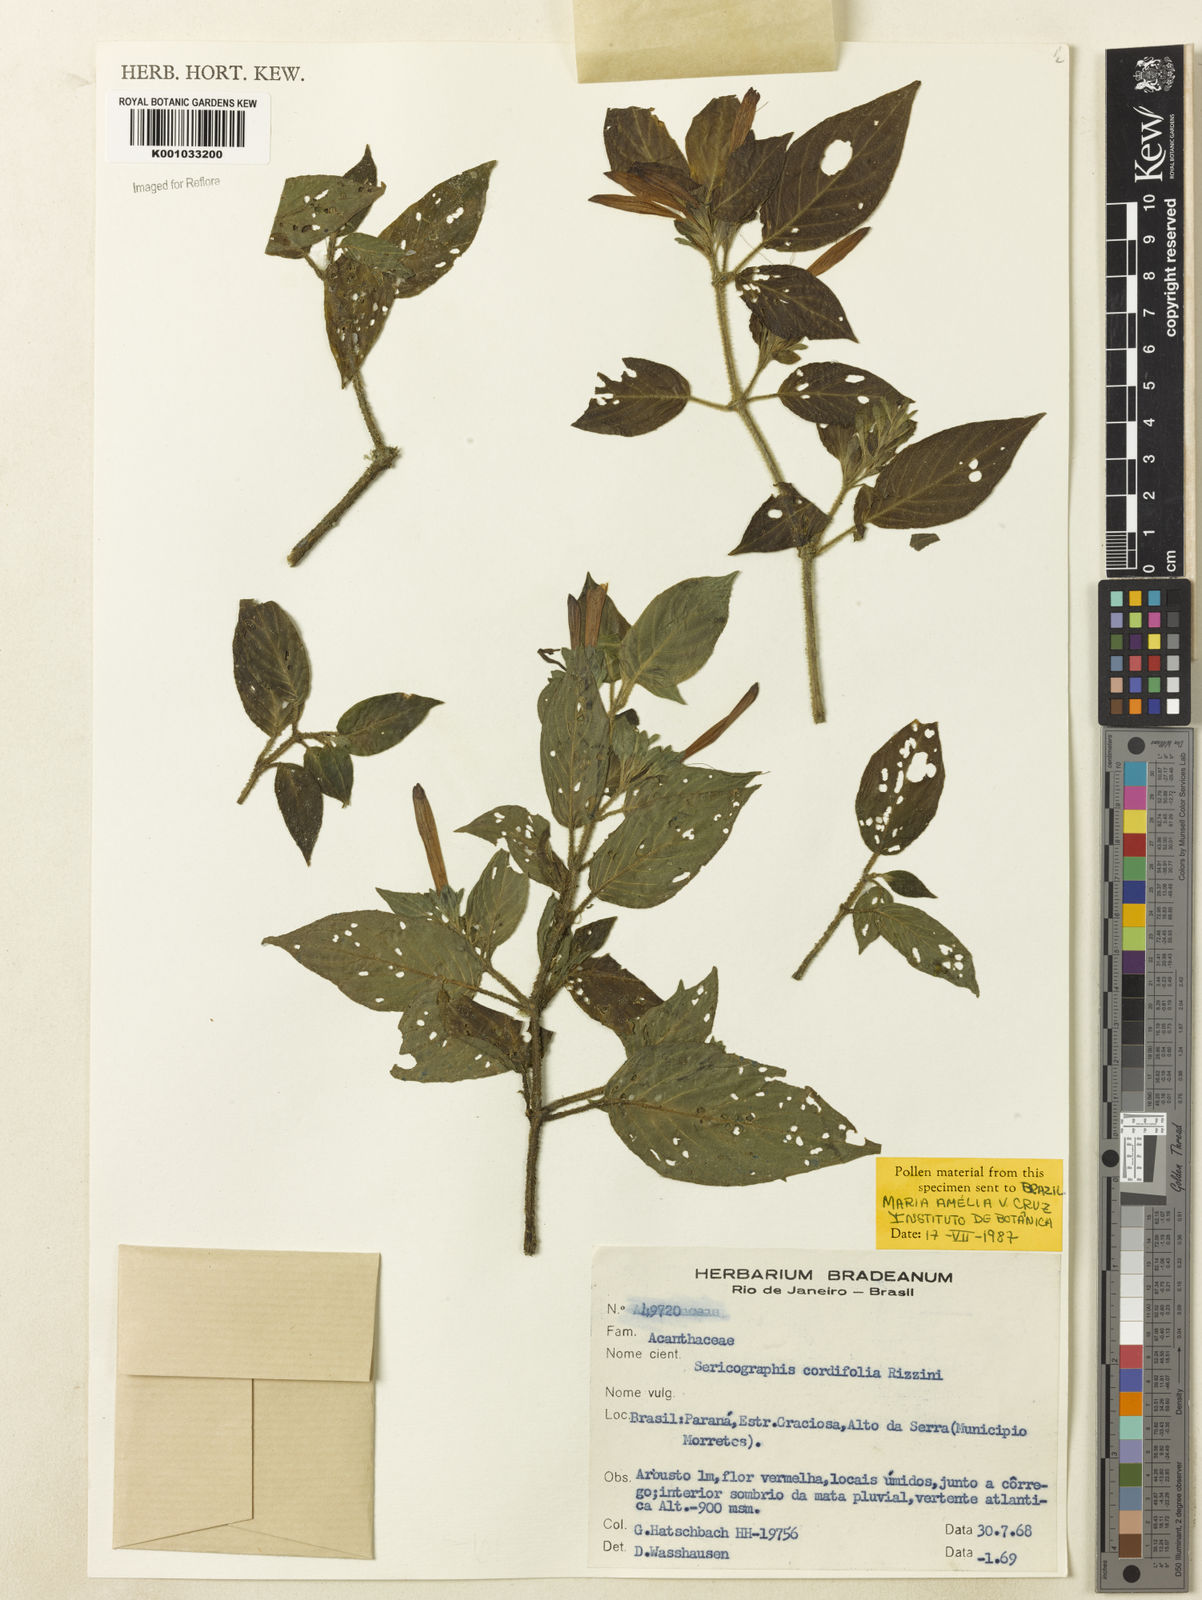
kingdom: Plantae
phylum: Tracheophyta
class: Magnoliopsida
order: Lamiales
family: Acanthaceae
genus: Andrographis
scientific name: Andrographis elongata
